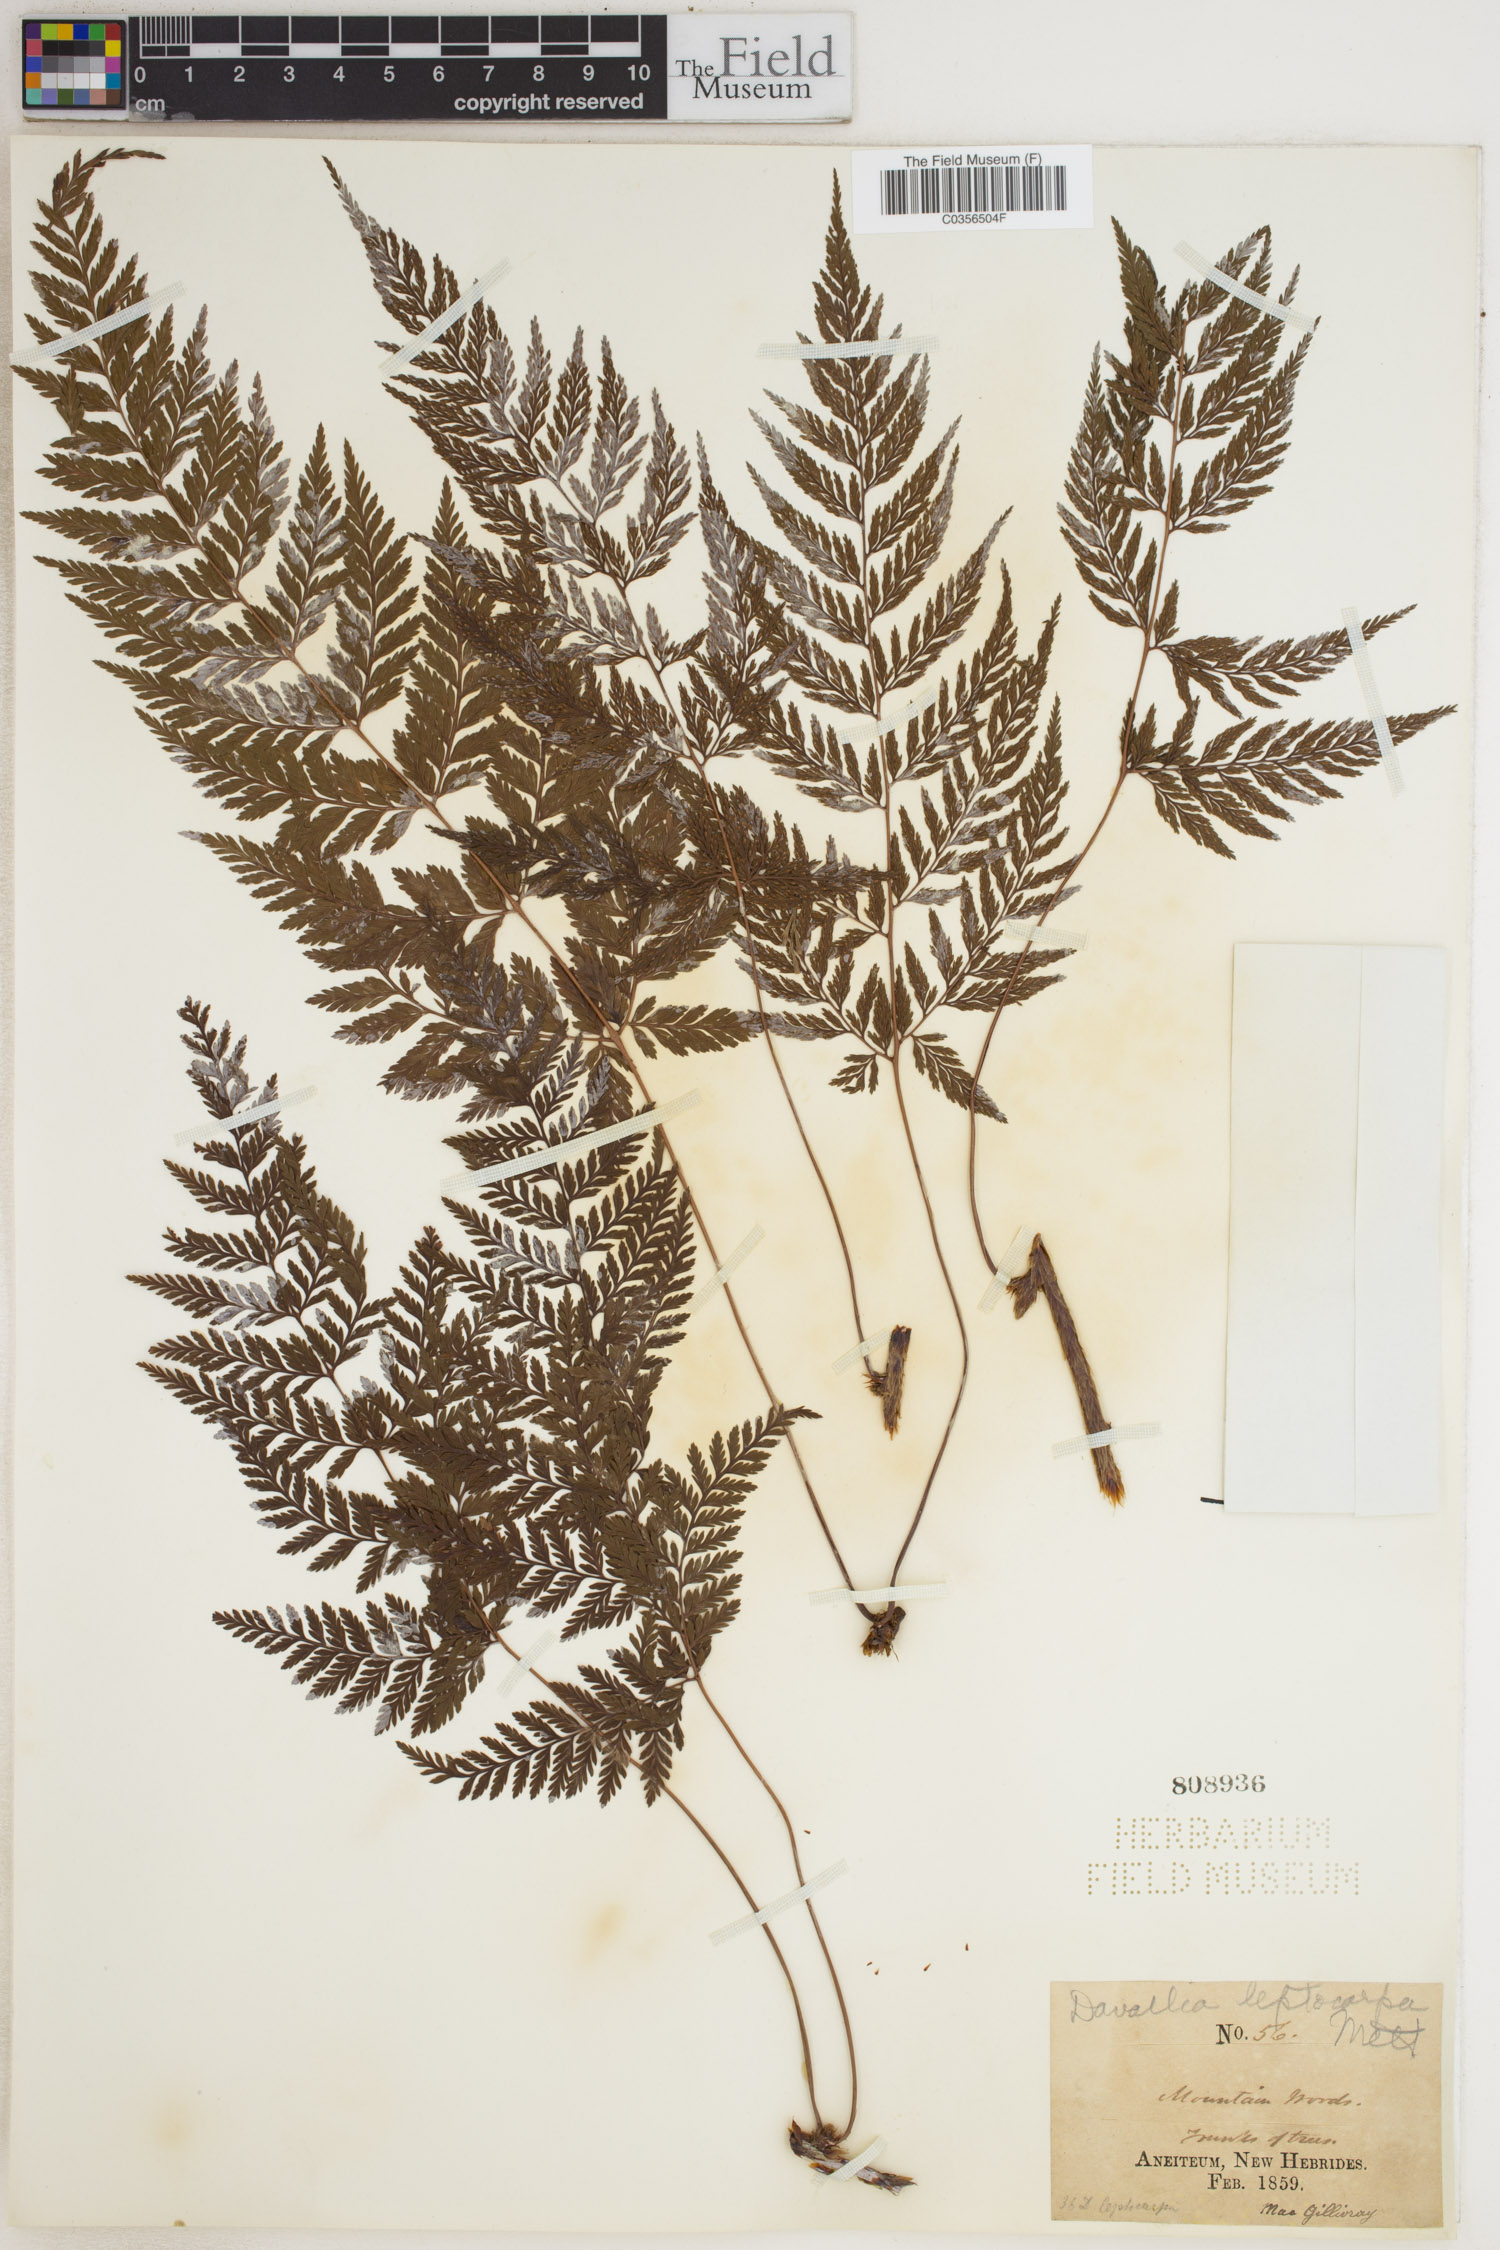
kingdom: Plantae
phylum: Tracheophyta
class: Polypodiopsida
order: Polypodiales
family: Davalliaceae
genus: Davallia
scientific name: Davallia leptocarpa
